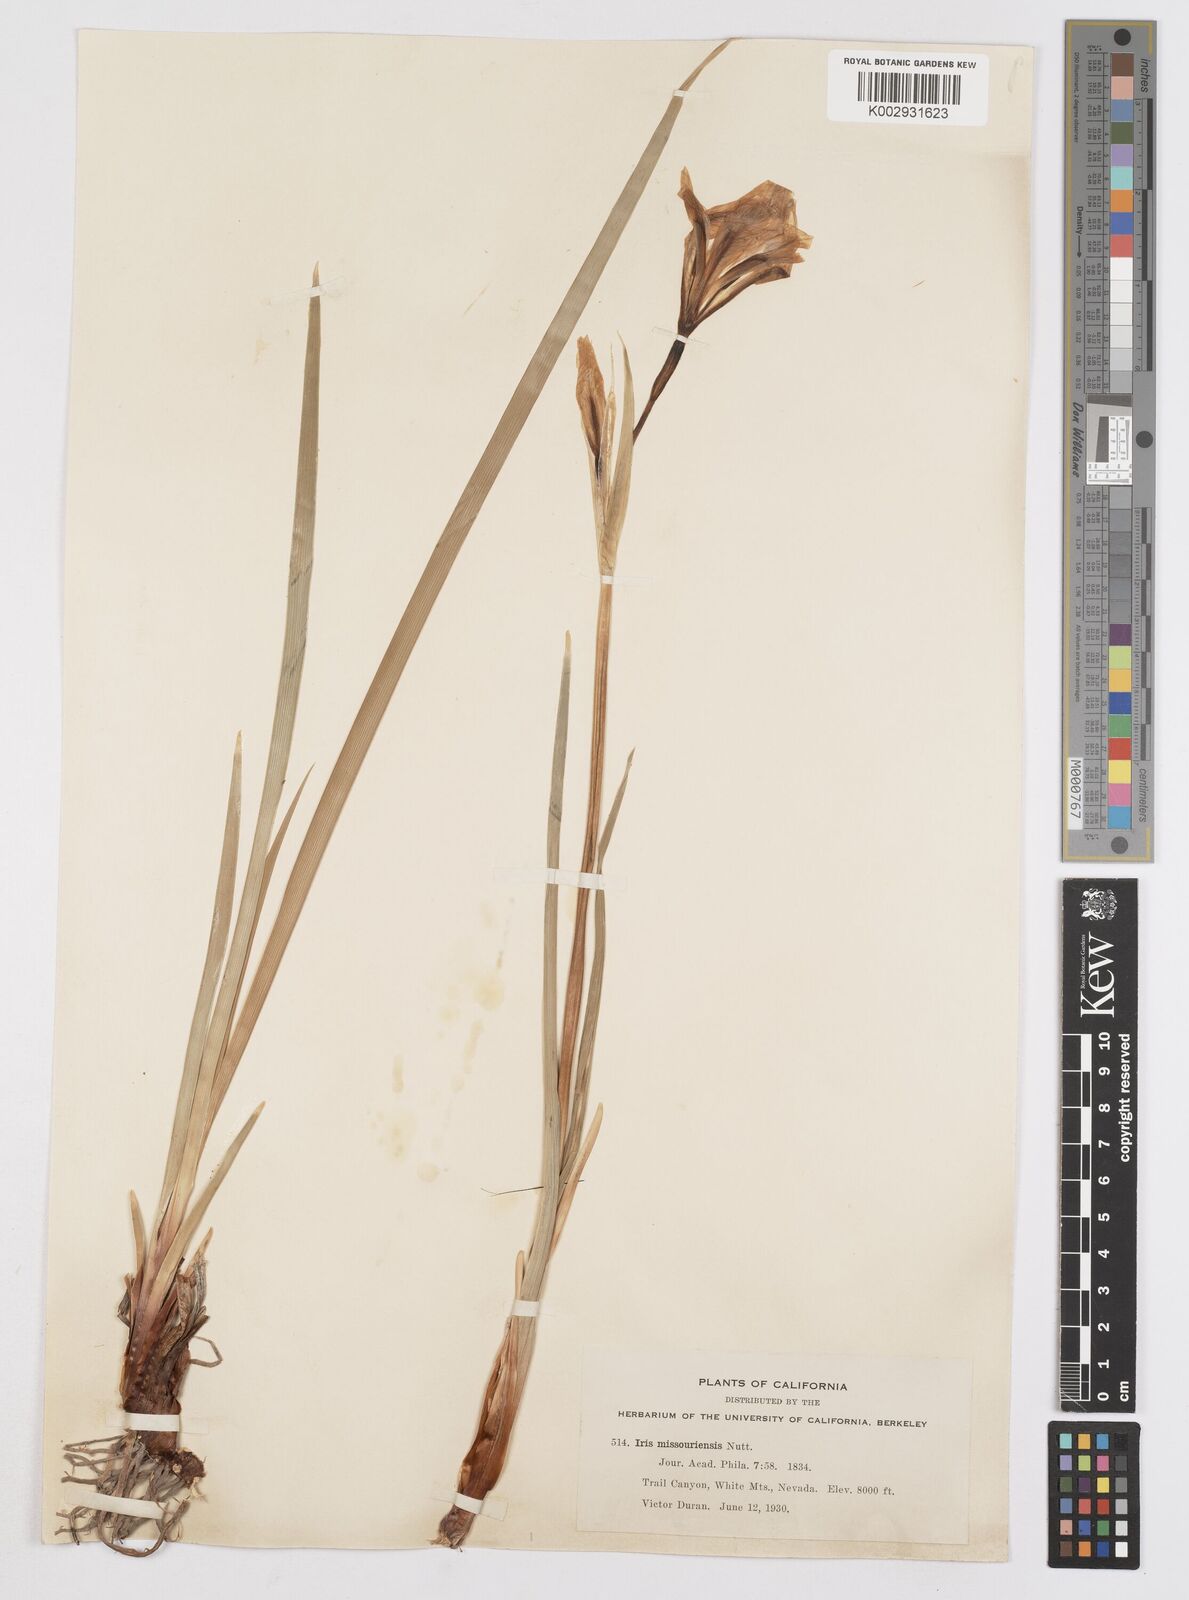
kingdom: Plantae
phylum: Tracheophyta
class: Liliopsida
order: Asparagales
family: Iridaceae
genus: Iris
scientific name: Iris missouriensis
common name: Rocky mountain iris
